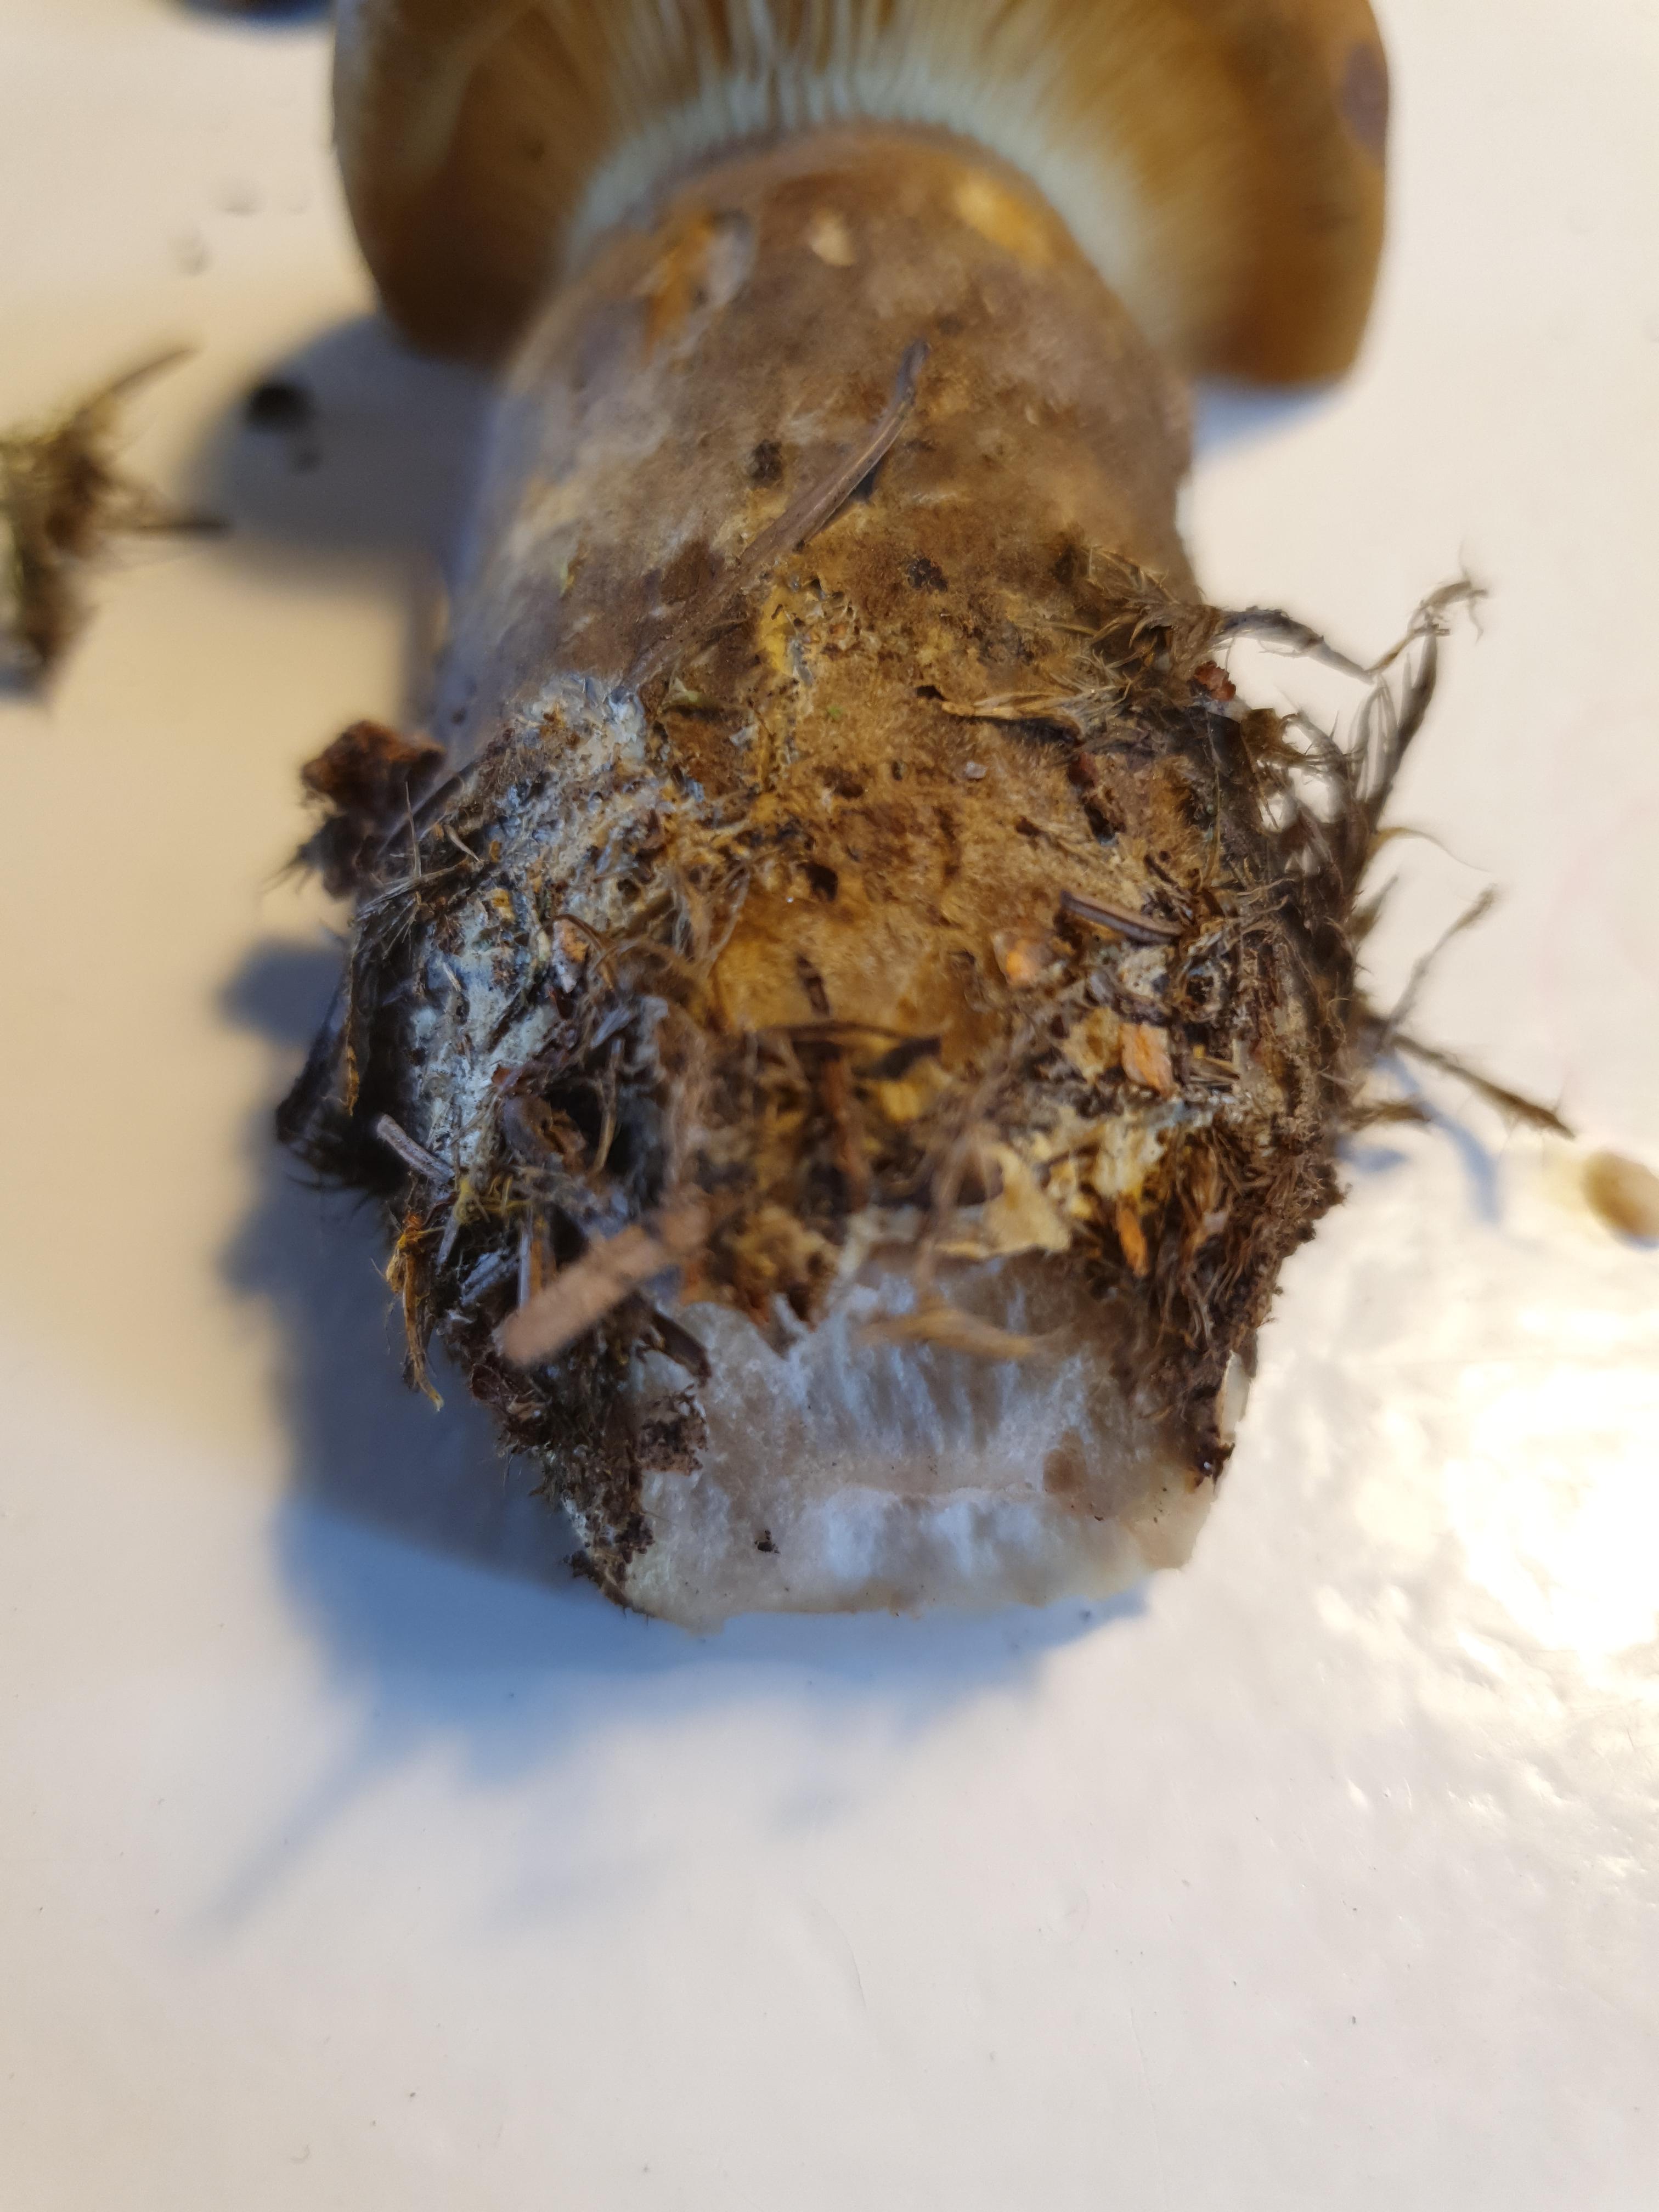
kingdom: Fungi
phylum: Basidiomycota
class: Agaricomycetes
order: Boletales
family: Tapinellaceae
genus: Tapinella
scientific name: Tapinella atrotomentosa
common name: sortfiltet viftesvamp
